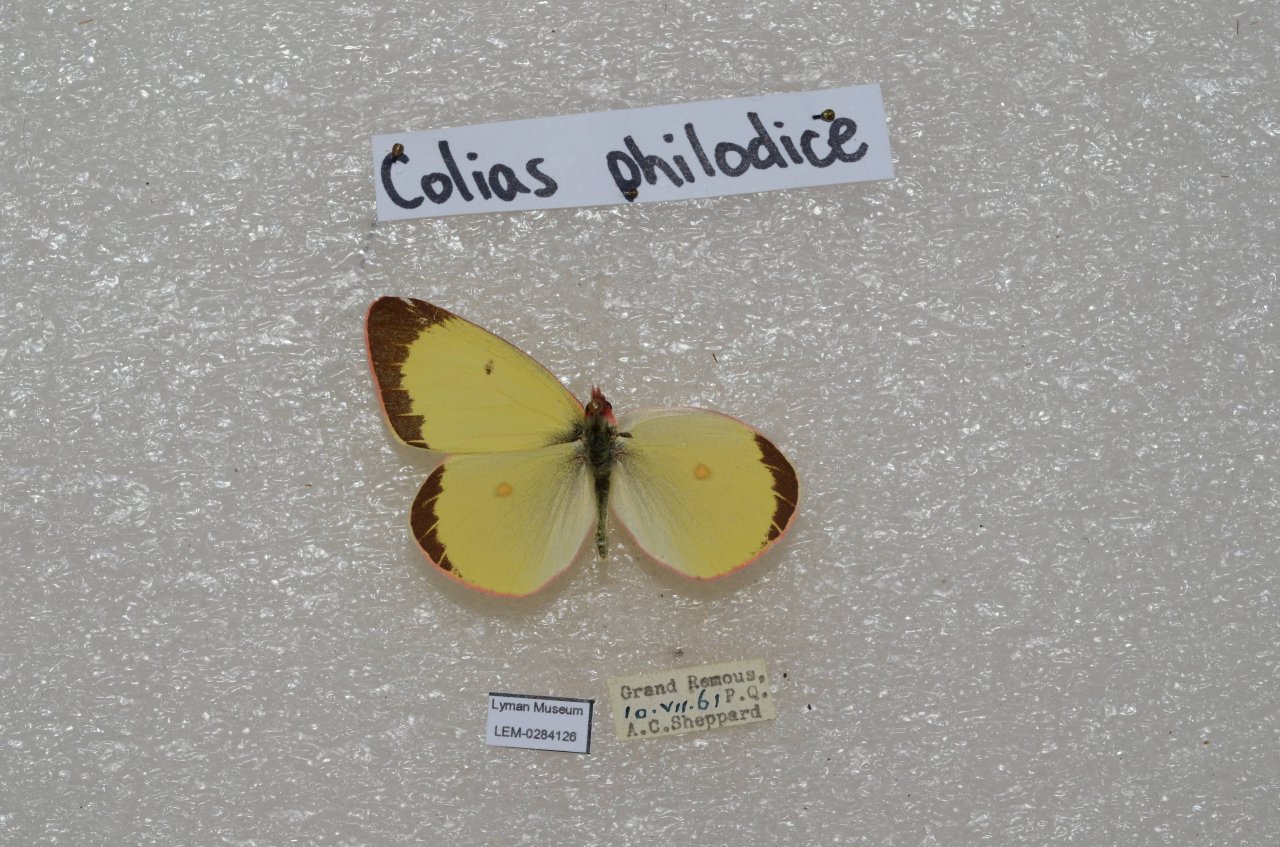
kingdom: Animalia
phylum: Arthropoda
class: Insecta
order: Lepidoptera
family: Pieridae
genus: Colias
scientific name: Colias interior
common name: Pink-edged Sulphur
